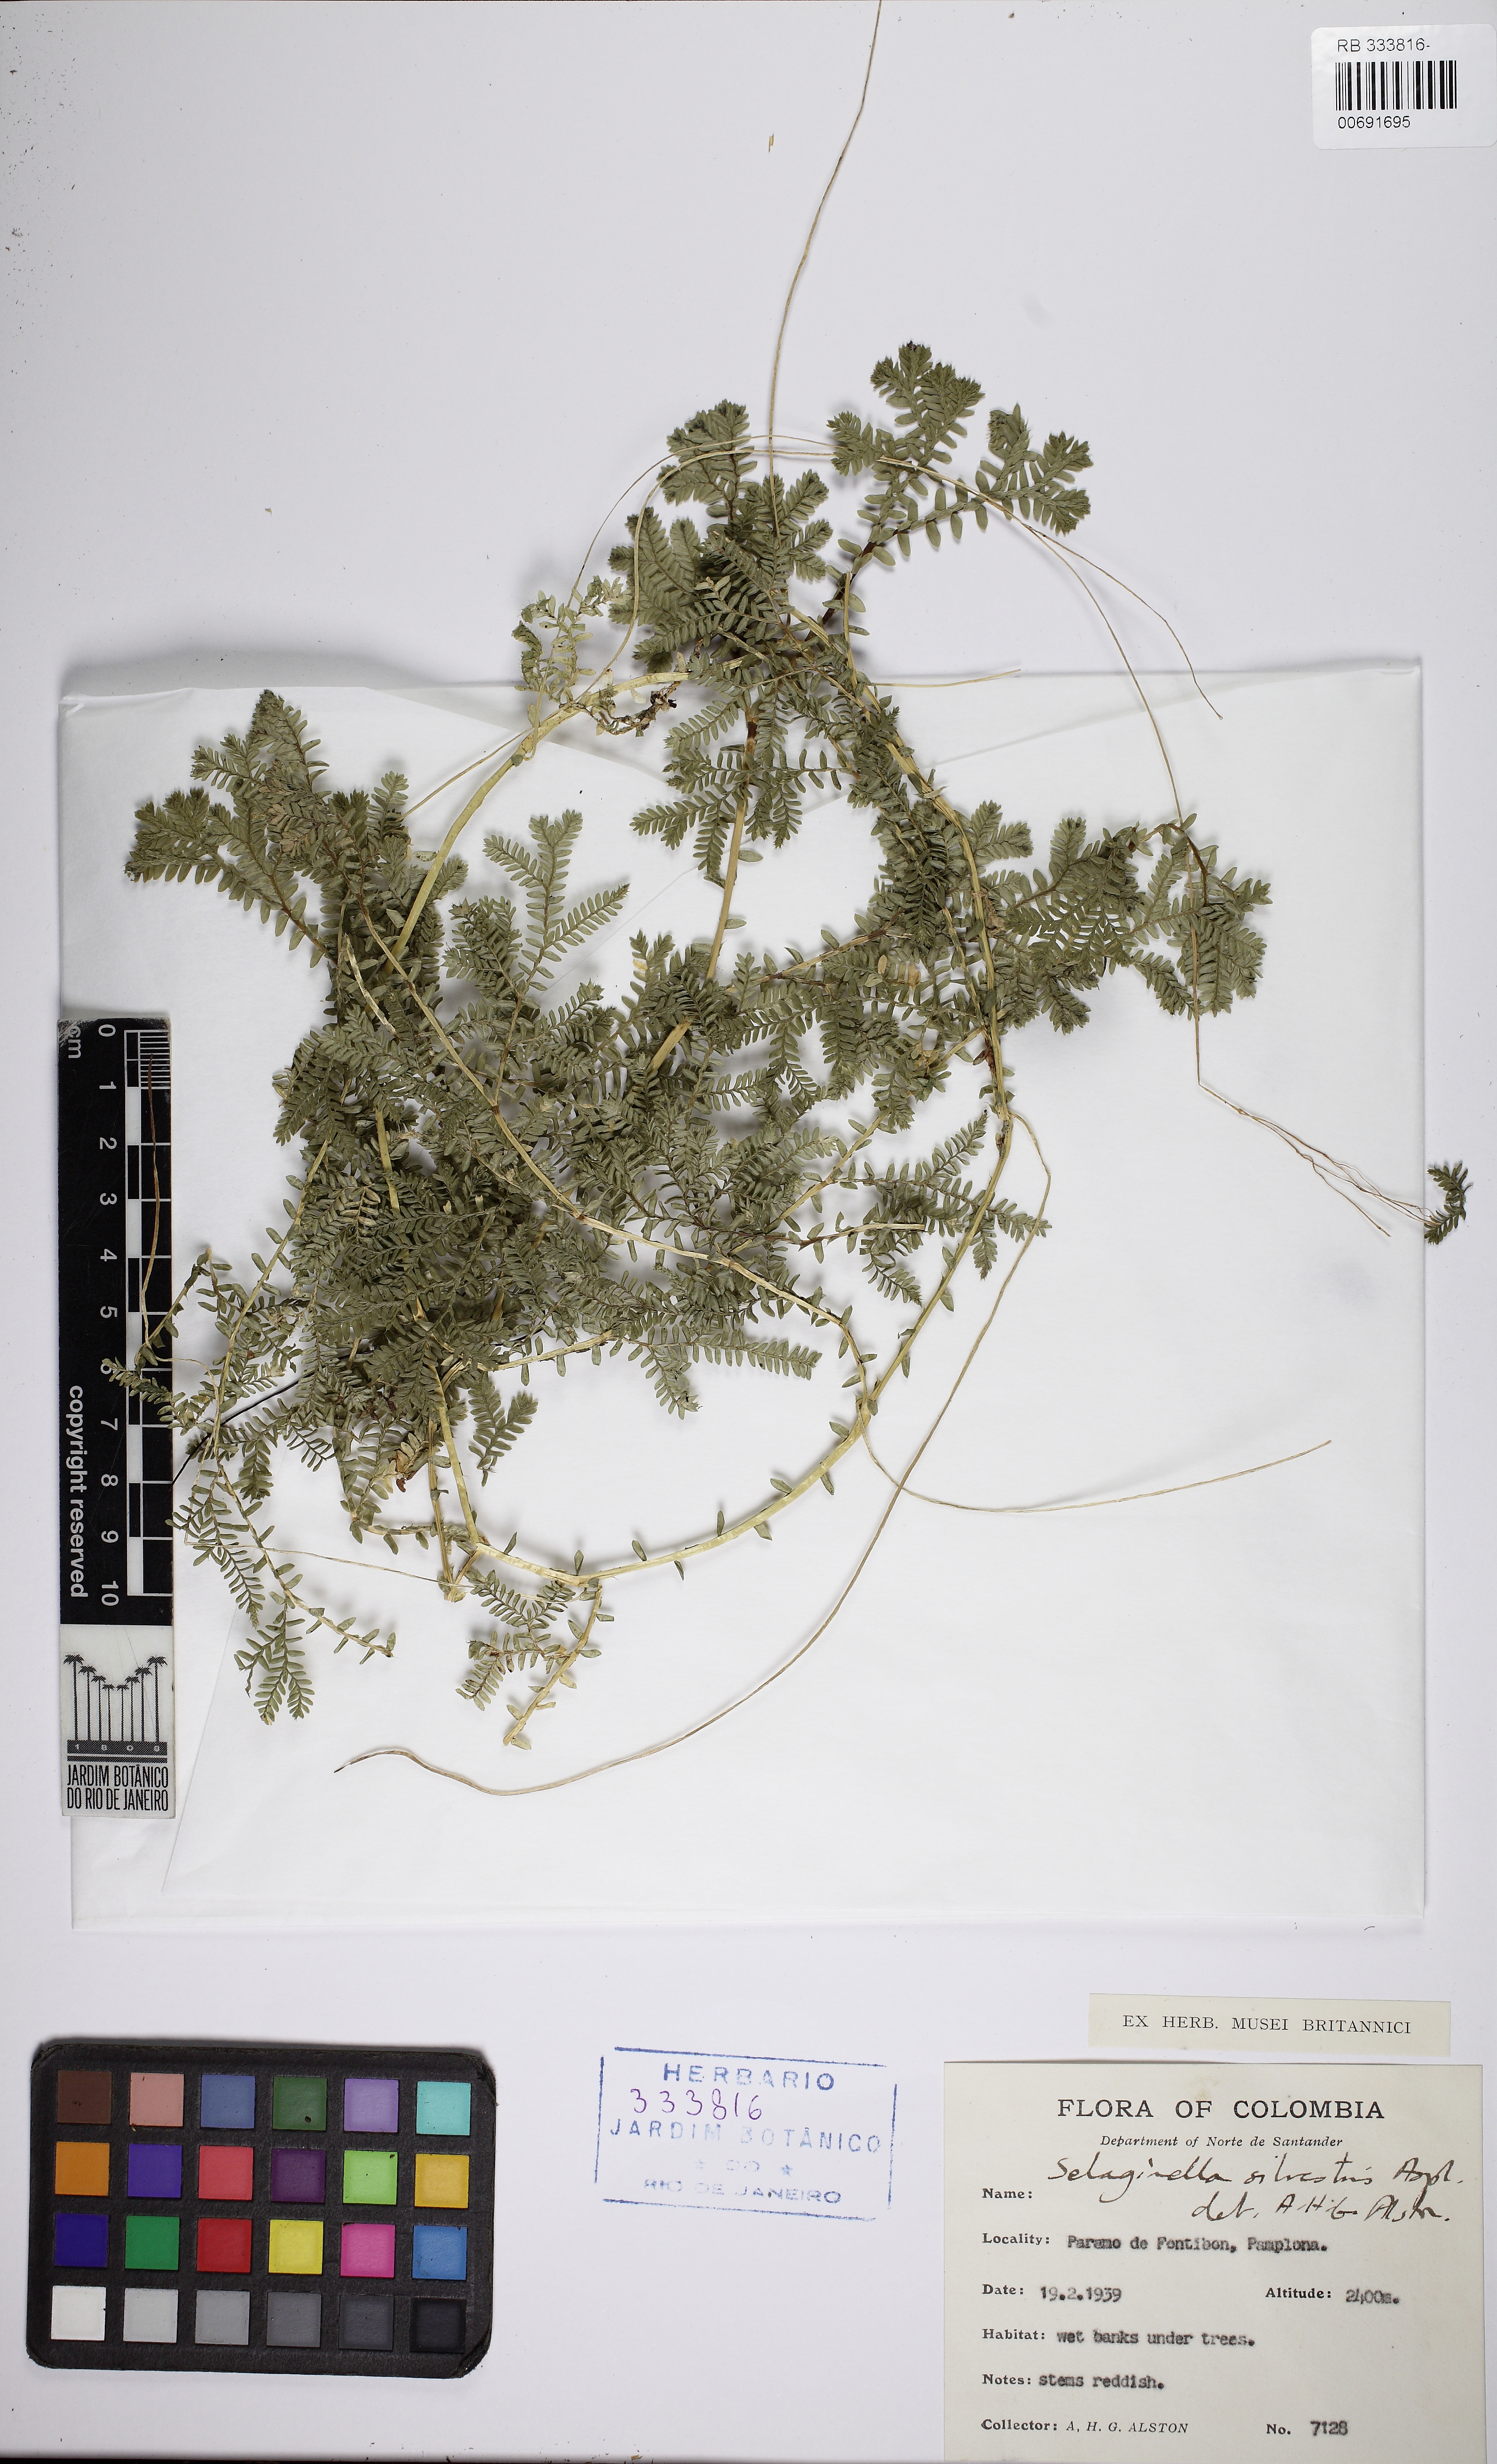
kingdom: Plantae
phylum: Tracheophyta
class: Lycopodiopsida
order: Selaginellales
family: Selaginellaceae
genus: Selaginella
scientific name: Selaginella silvestris
